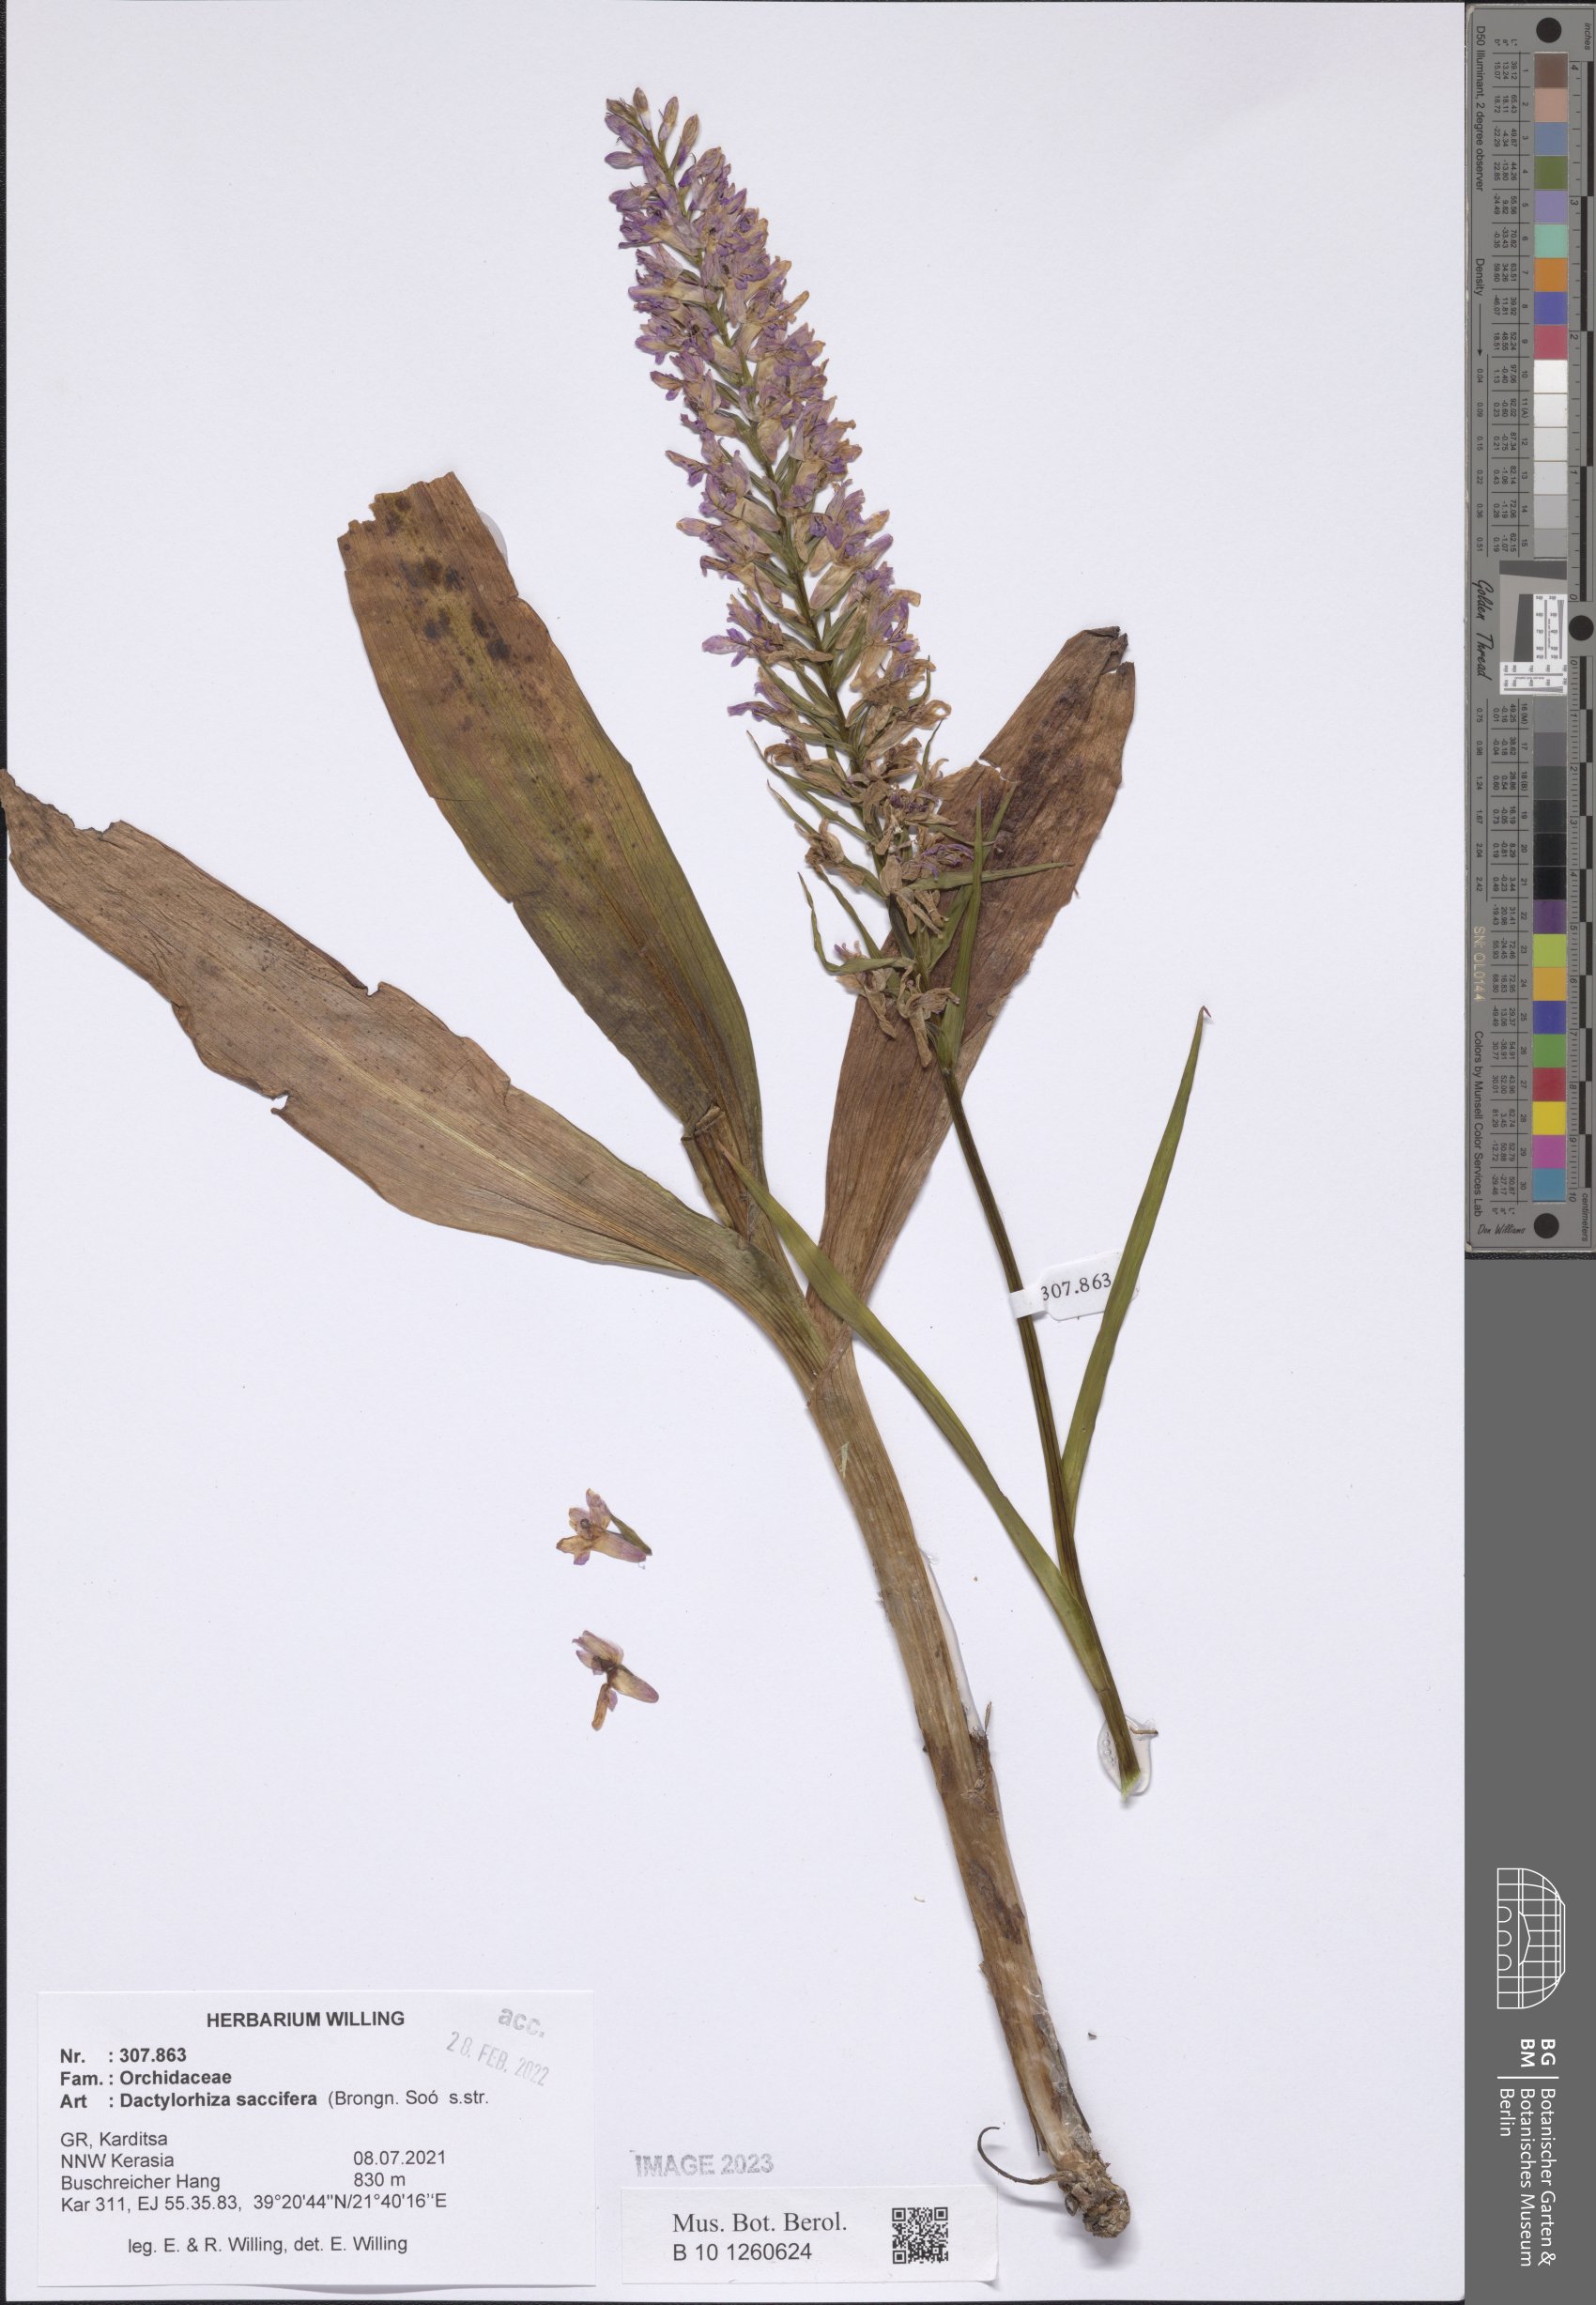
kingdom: Plantae
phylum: Tracheophyta
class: Liliopsida
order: Asparagales
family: Orchidaceae
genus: Dactylorhiza
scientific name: Dactylorhiza maculata
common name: Heath spotted-orchid
